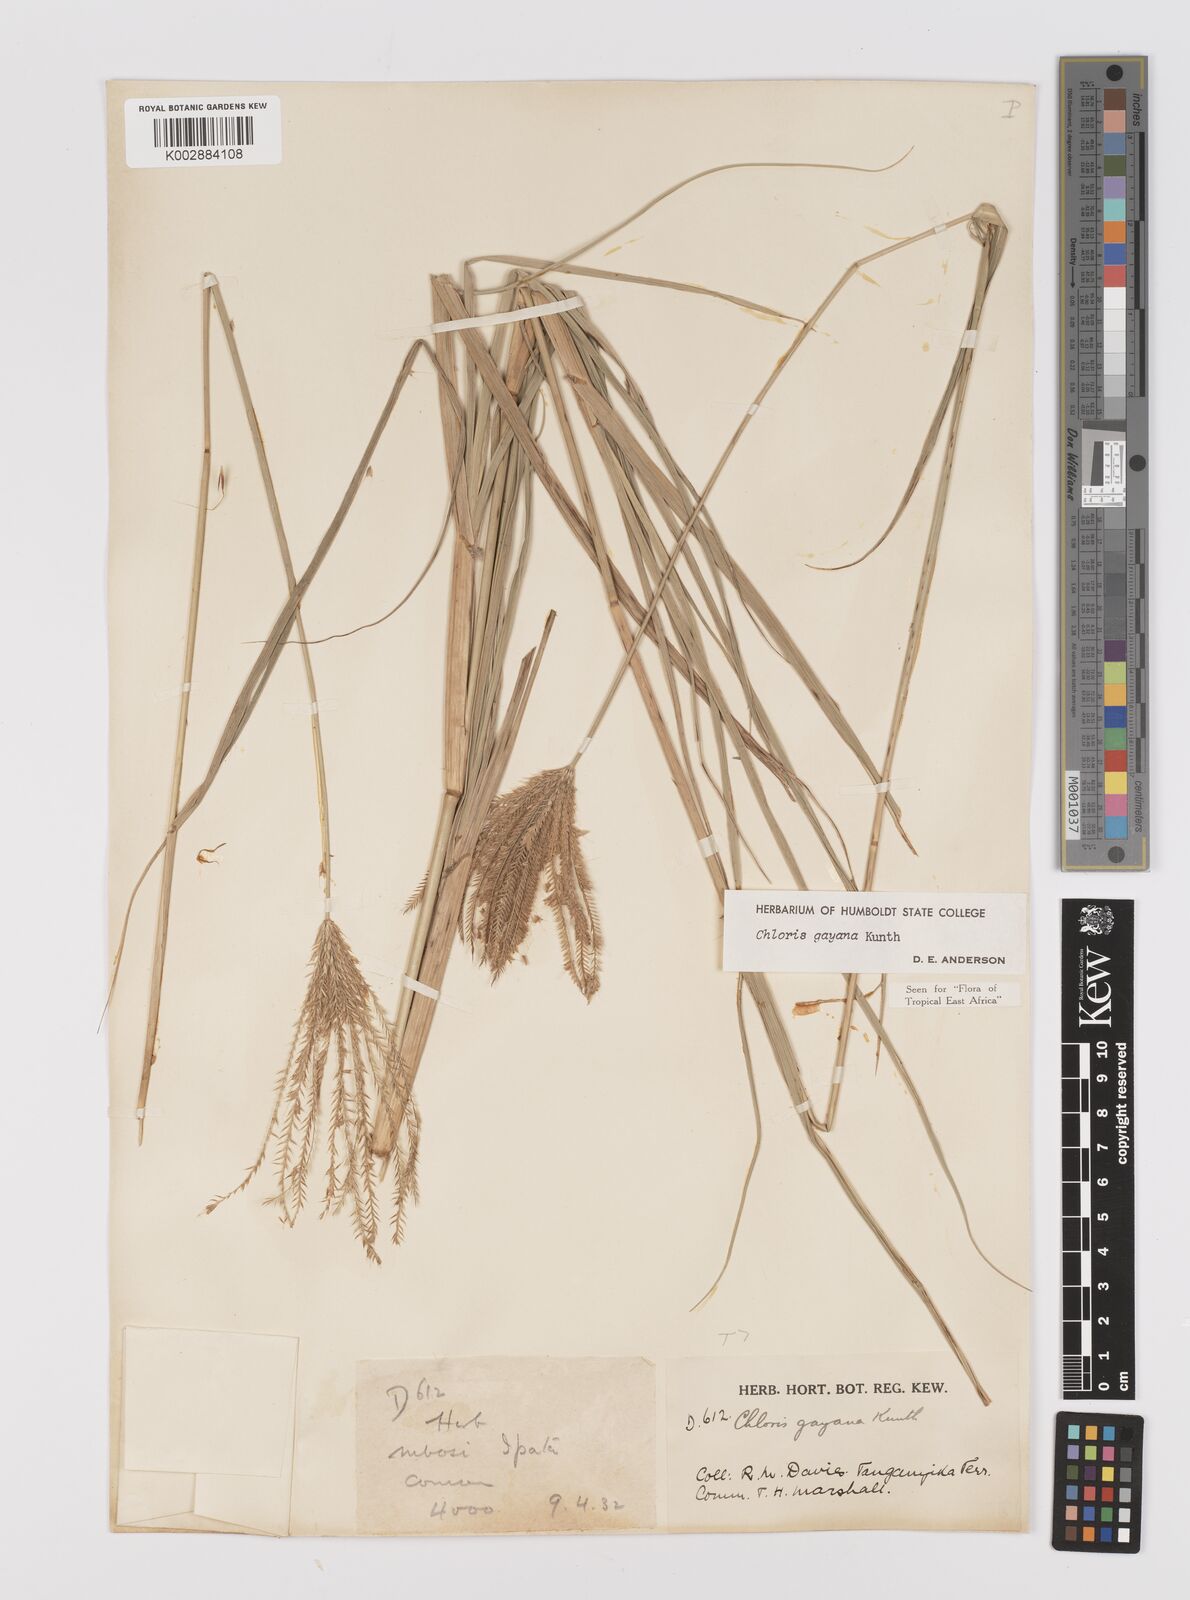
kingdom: Plantae
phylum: Tracheophyta
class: Liliopsida
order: Poales
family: Poaceae
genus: Chloris
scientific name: Chloris gayana
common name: Rhodes grass
